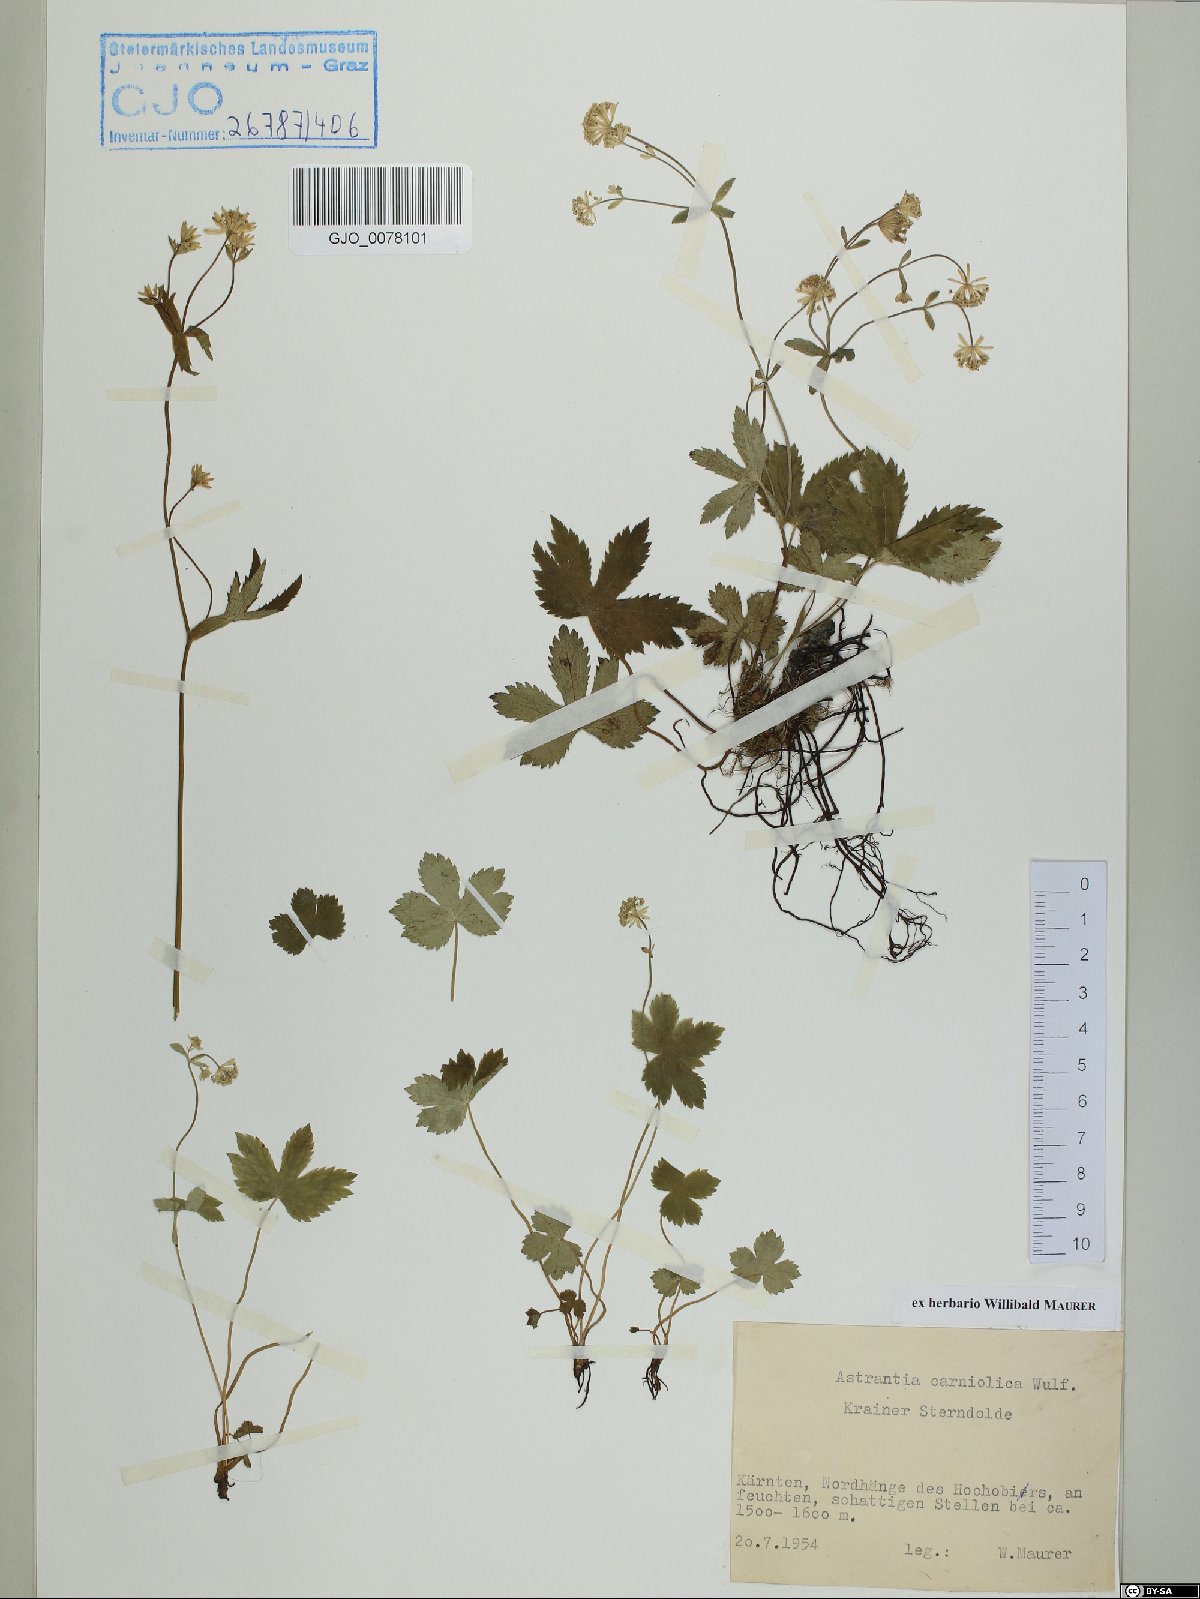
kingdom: Plantae
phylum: Tracheophyta
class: Magnoliopsida
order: Apiales
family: Apiaceae
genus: Astrantia
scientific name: Astrantia carniolica
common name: Carnic masterwort
